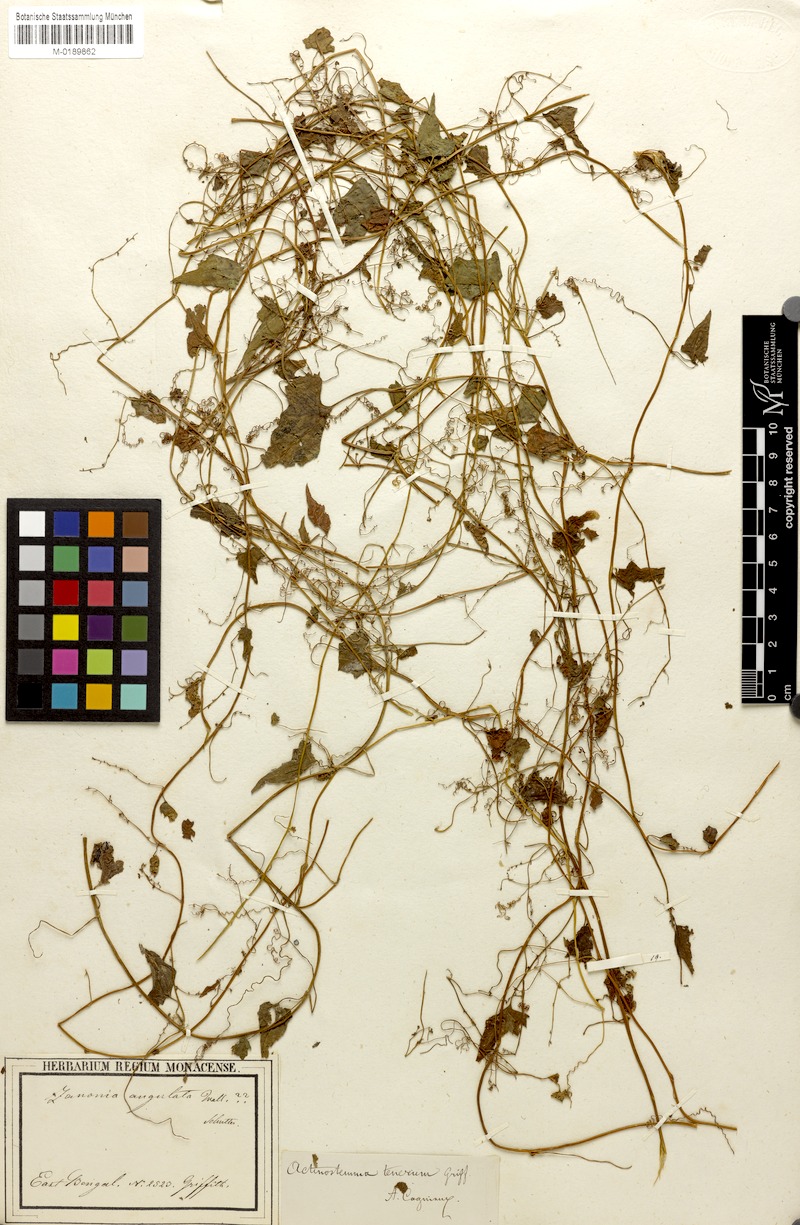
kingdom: Plantae
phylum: Tracheophyta
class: Magnoliopsida
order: Cucurbitales
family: Cucurbitaceae
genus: Actinostemma
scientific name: Actinostemma tenerum
